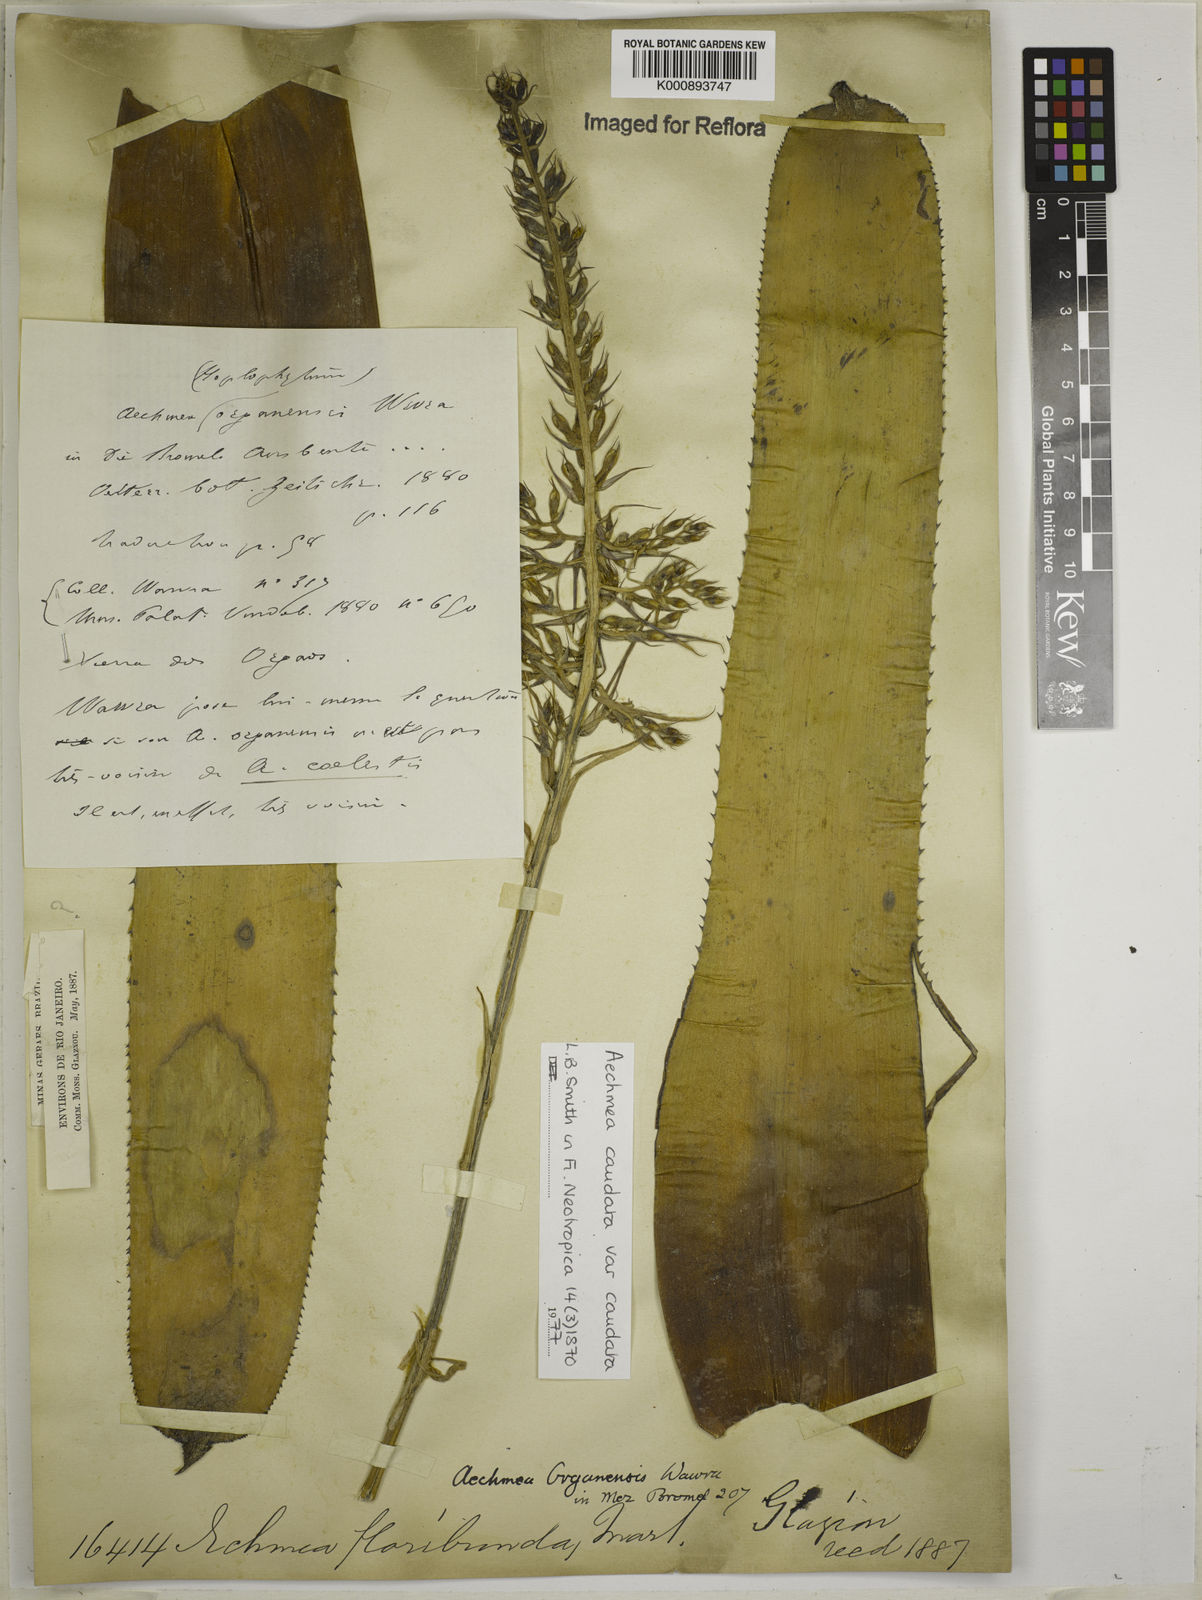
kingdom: Plantae
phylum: Tracheophyta
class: Liliopsida
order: Poales
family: Bromeliaceae
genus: Aechmea
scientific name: Aechmea caudata
